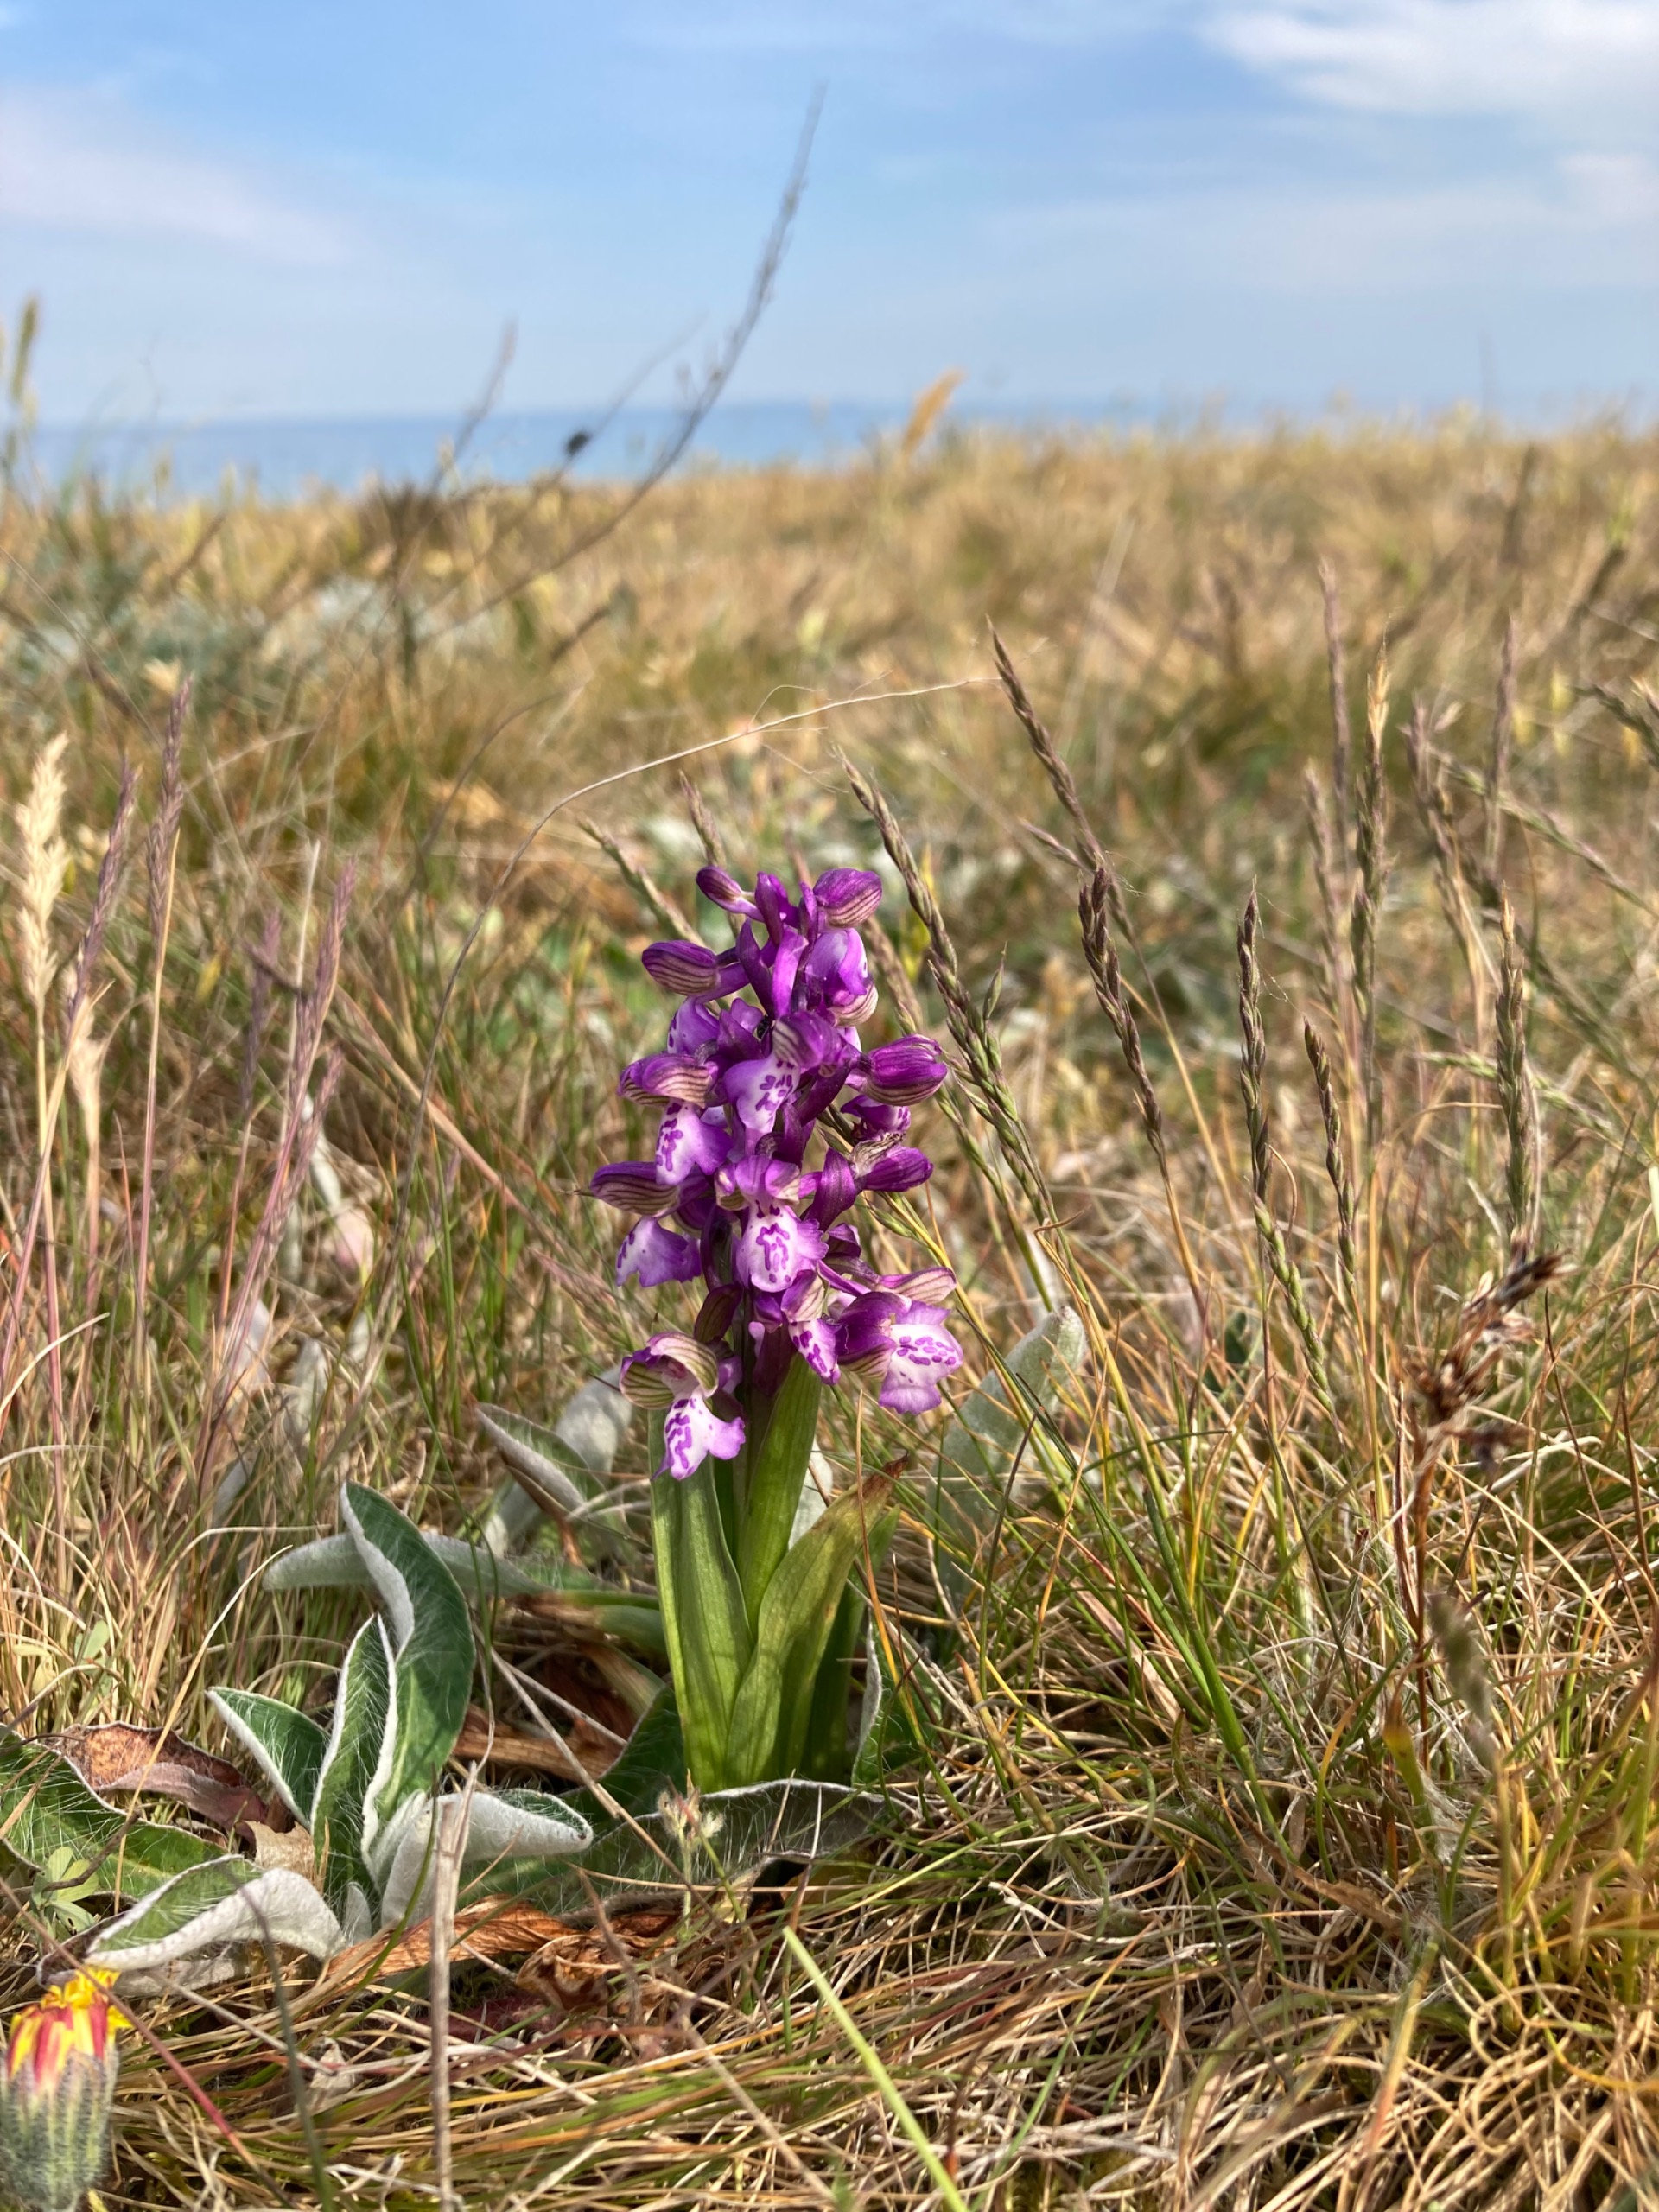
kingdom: Plantae
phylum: Tracheophyta
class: Liliopsida
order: Asparagales
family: Orchidaceae
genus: Anacamptis
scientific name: Anacamptis morio
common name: Salepgøgeurt
